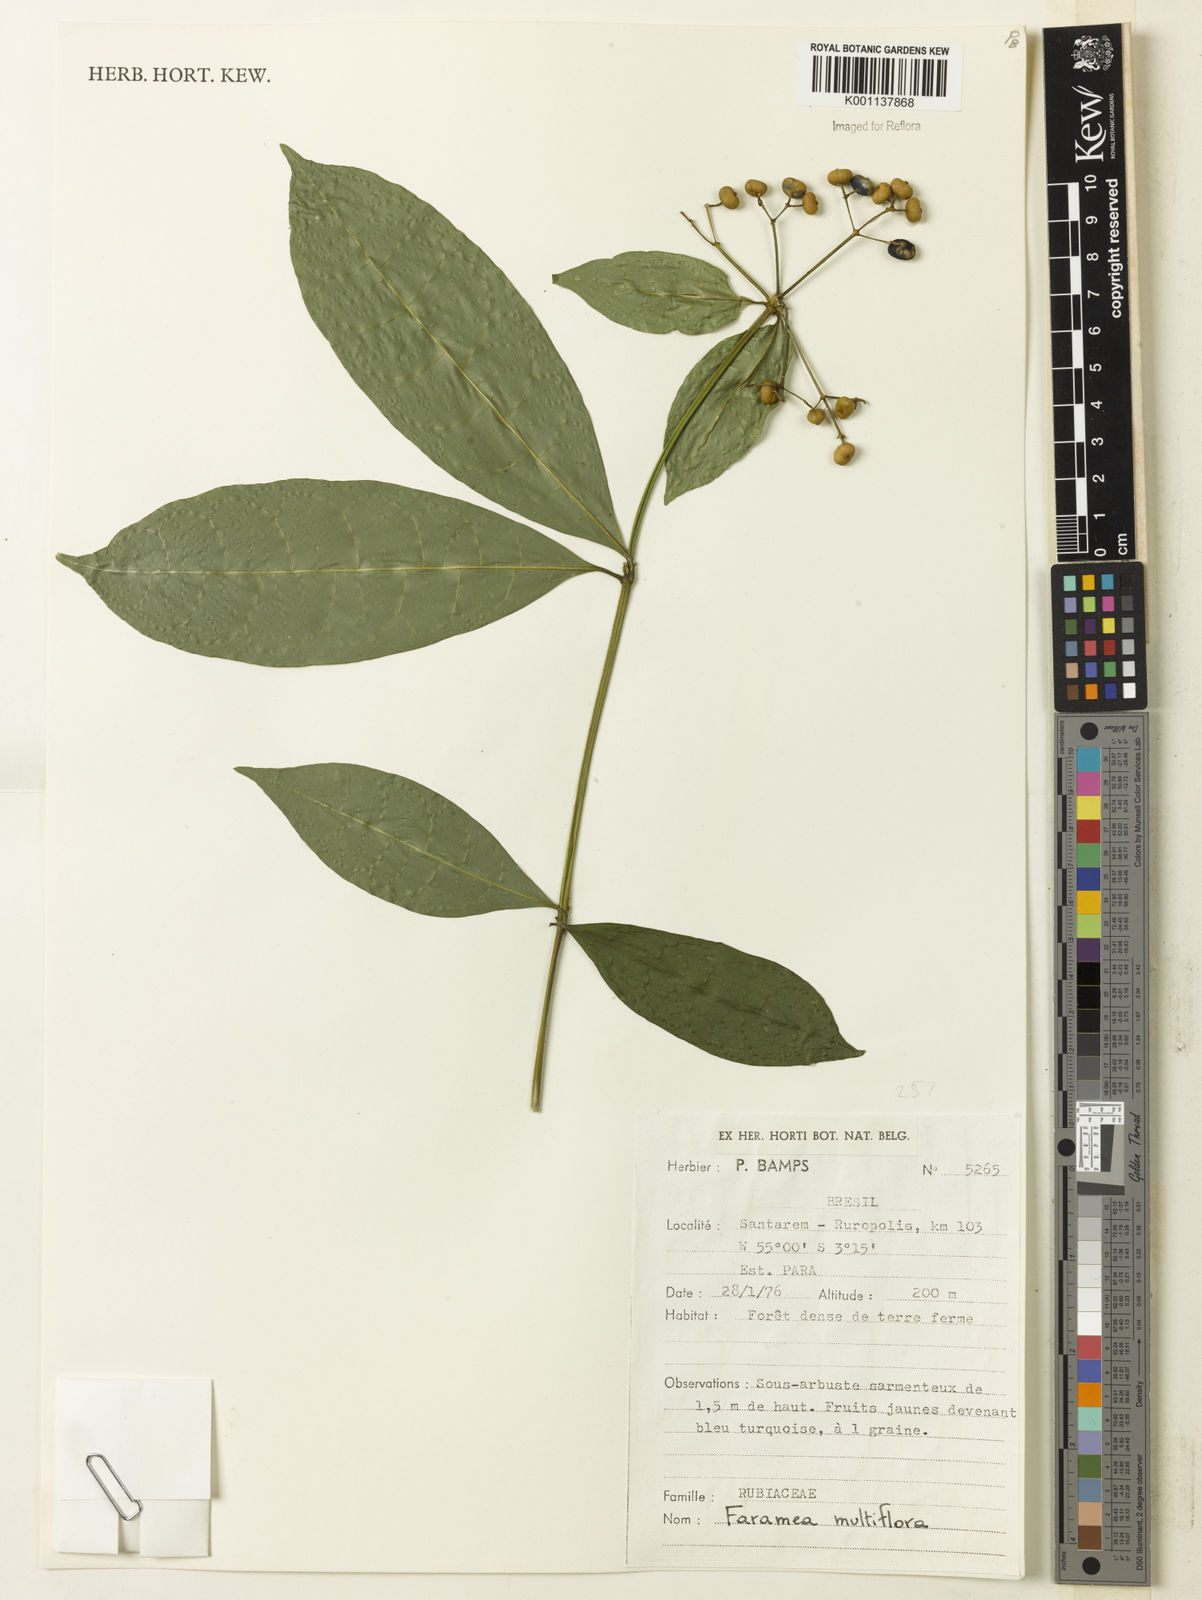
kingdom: Plantae
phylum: Tracheophyta
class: Magnoliopsida
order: Gentianales
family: Rubiaceae
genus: Faramea
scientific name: Faramea multiflora
